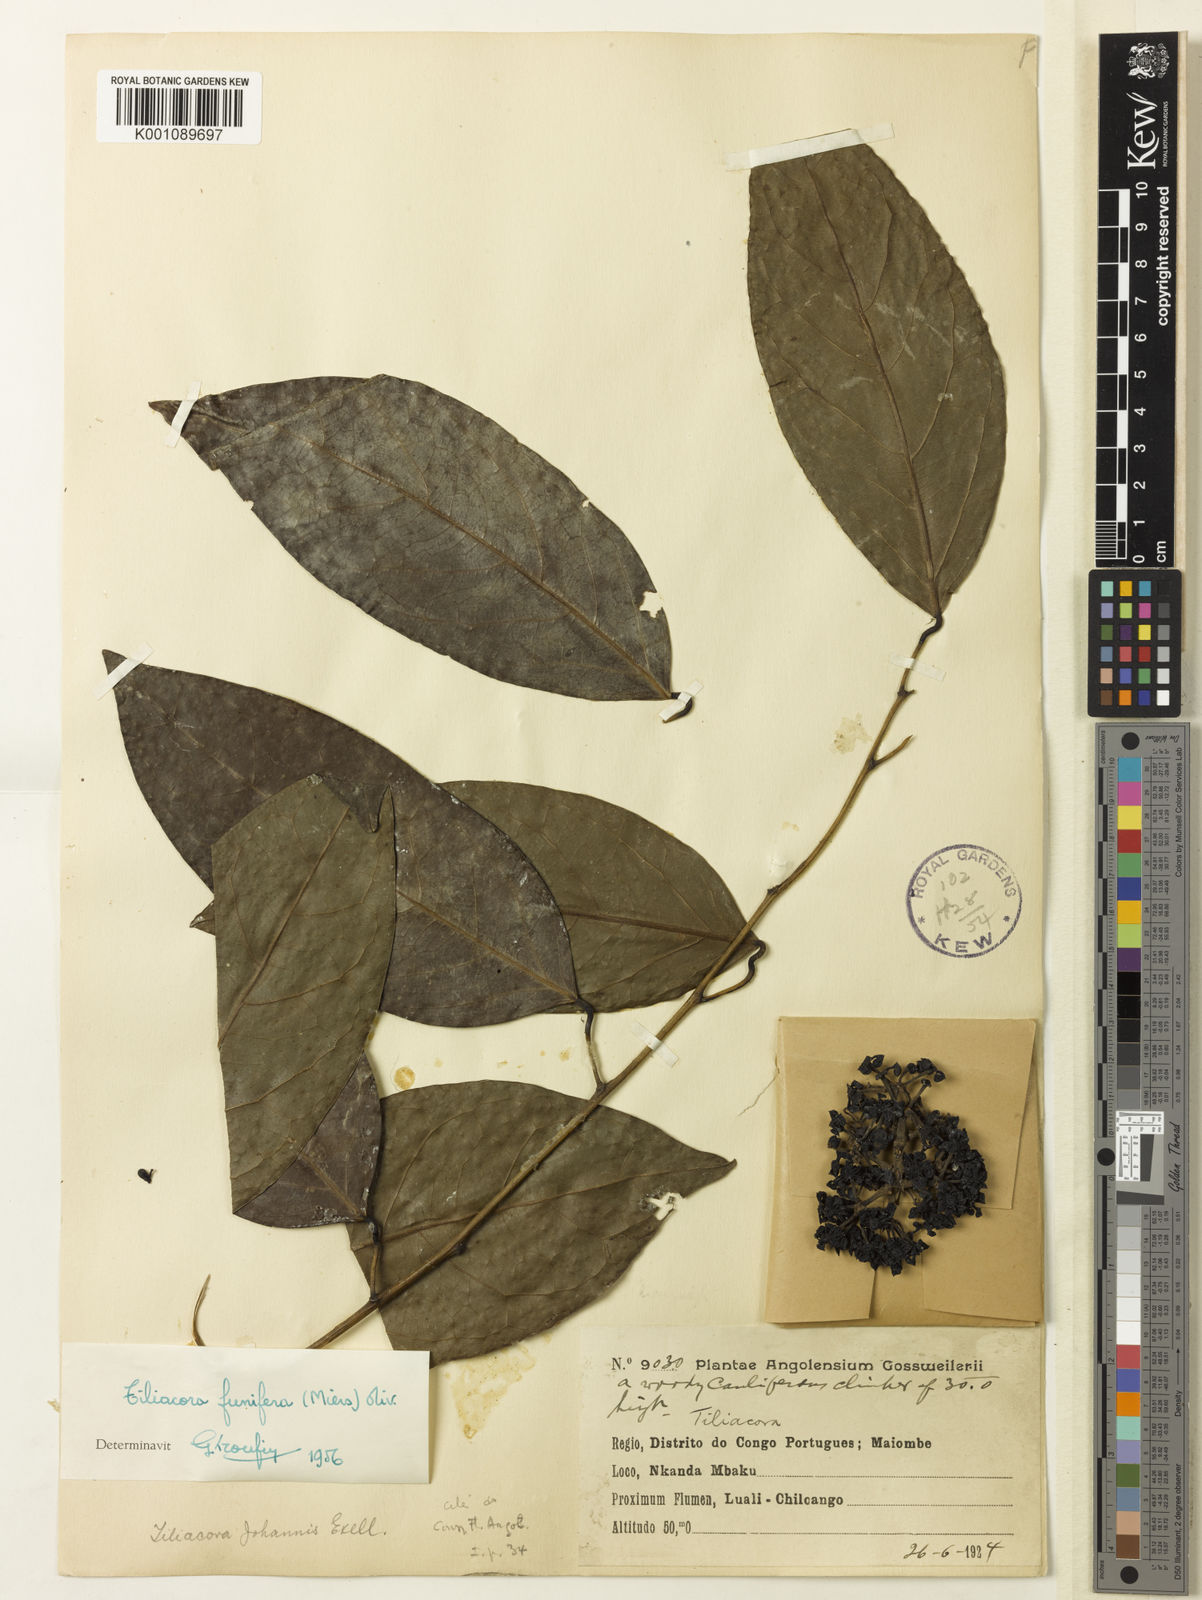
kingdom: Plantae
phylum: Tracheophyta
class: Magnoliopsida
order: Ranunculales
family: Menispermaceae
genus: Tiliacora
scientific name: Tiliacora funifera
